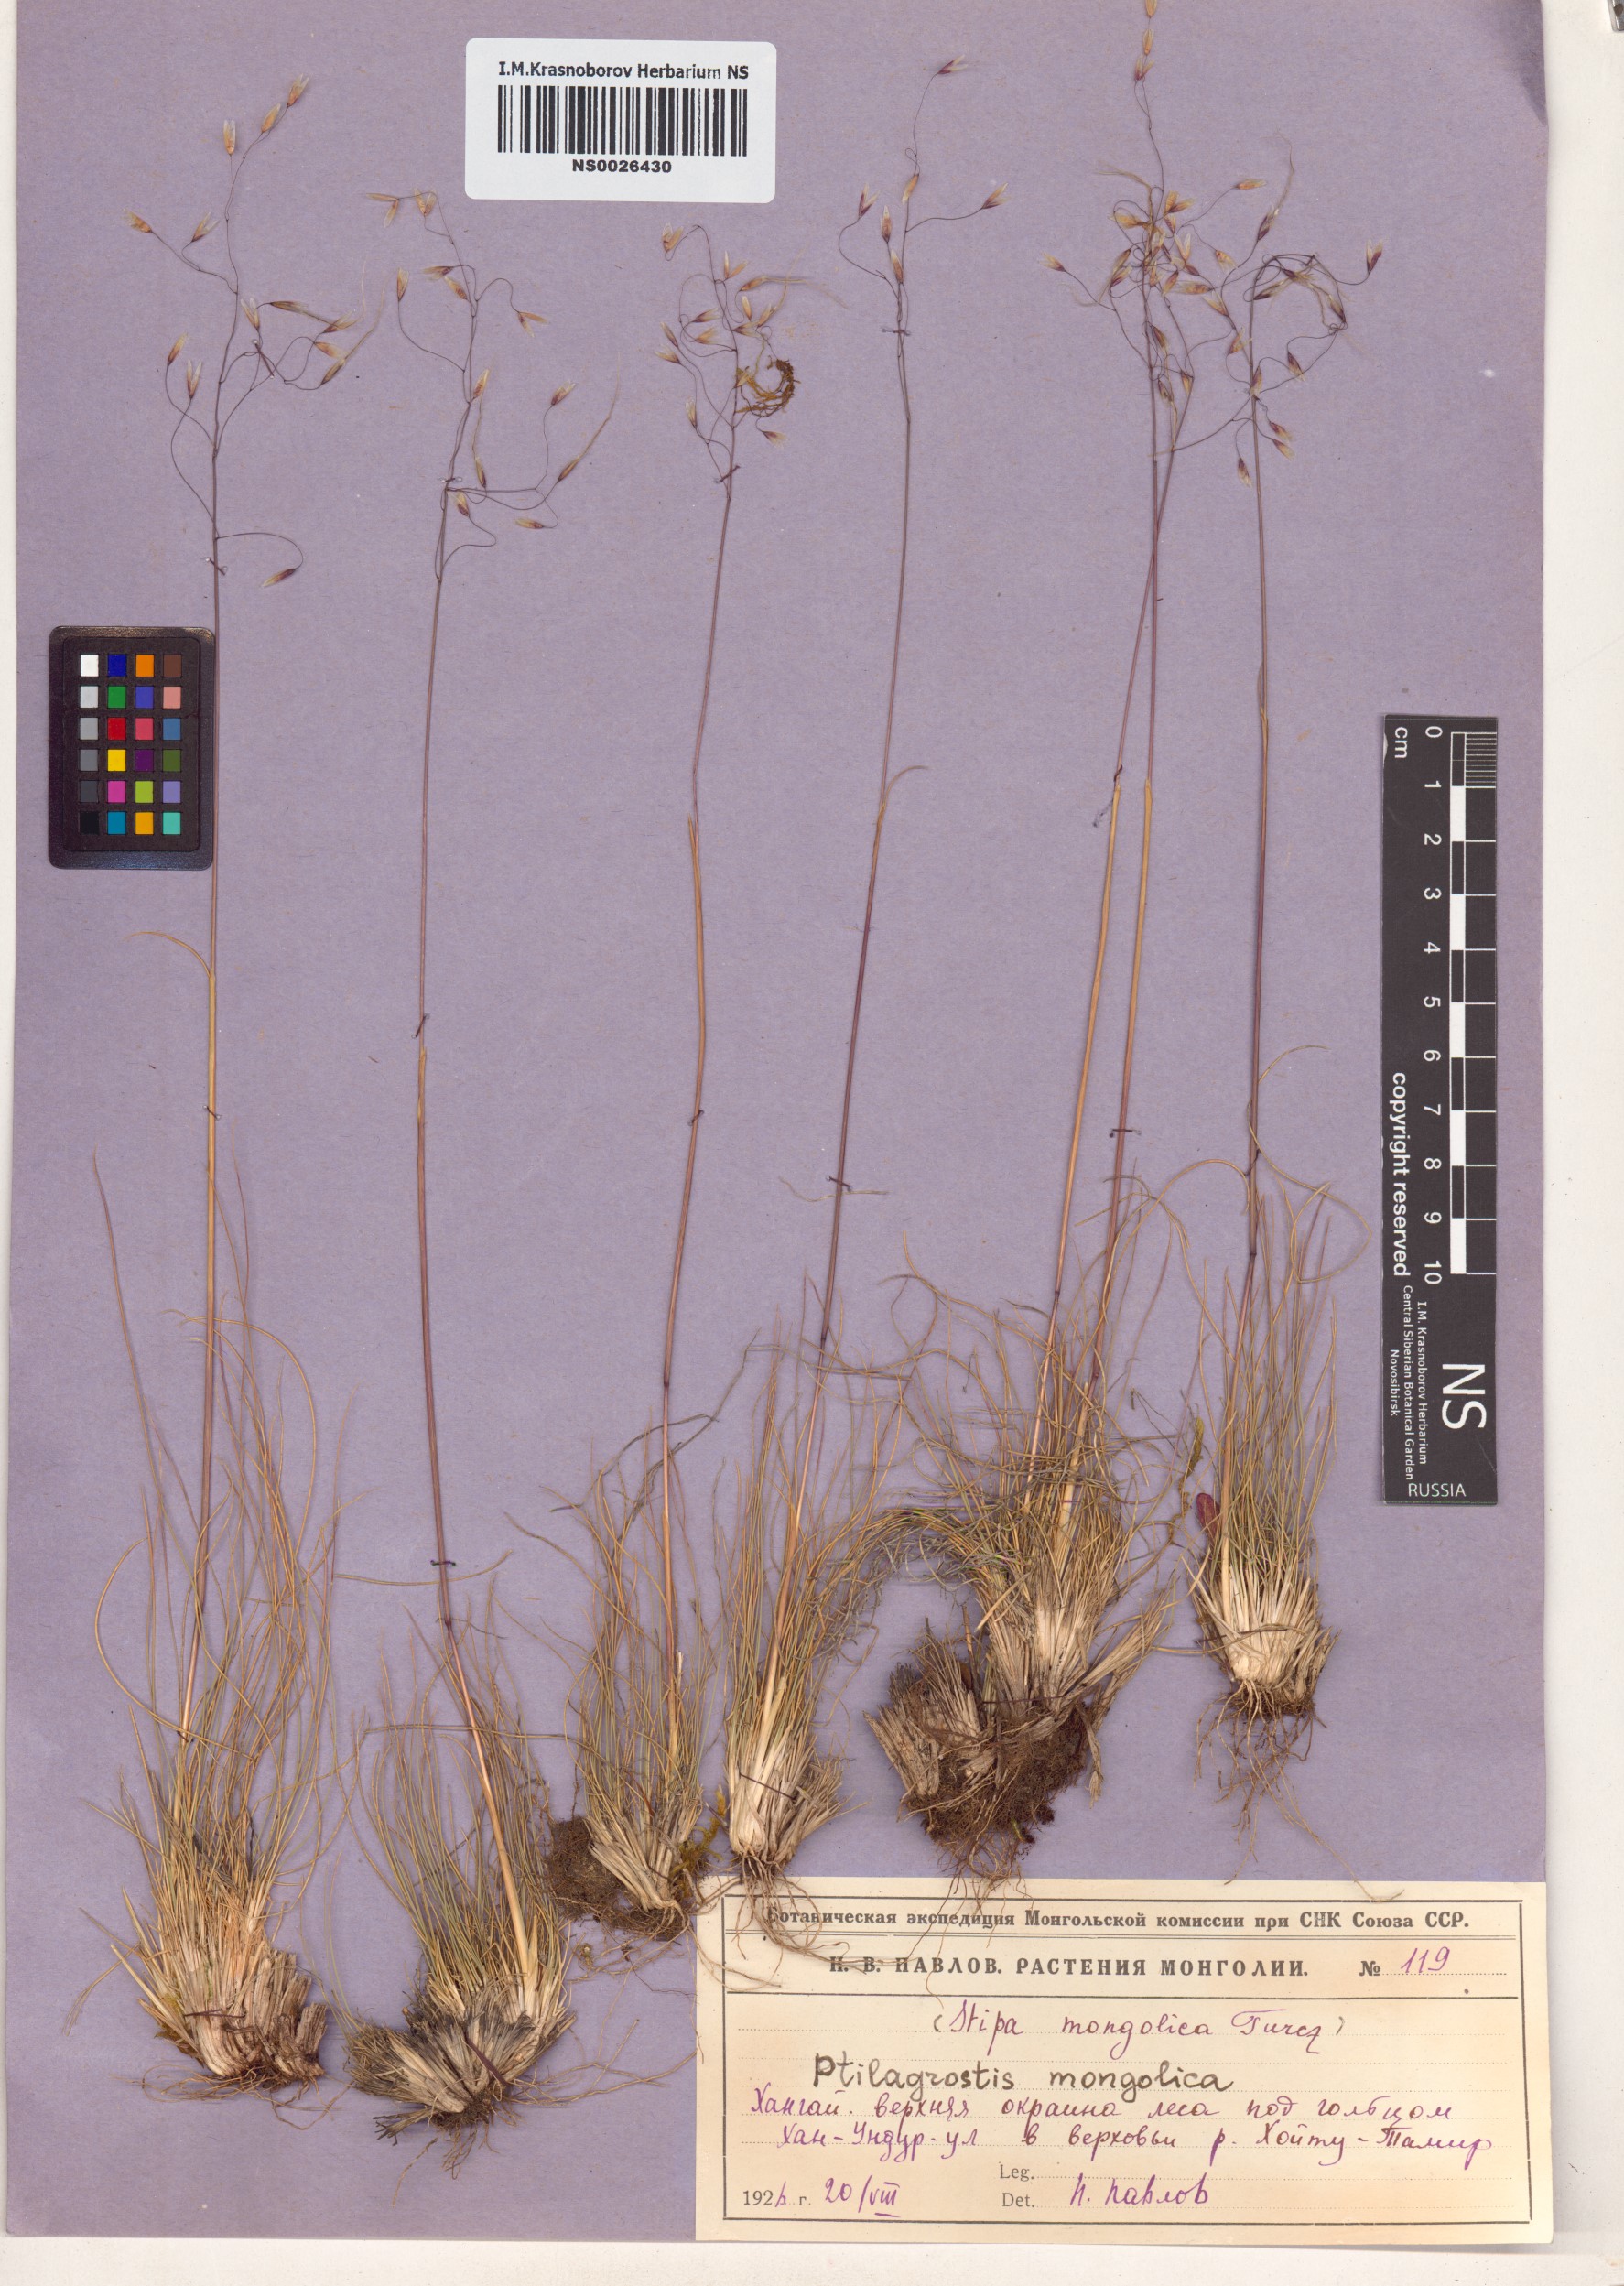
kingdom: Plantae
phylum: Tracheophyta
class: Liliopsida
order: Poales
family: Poaceae
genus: Ptilagrostis
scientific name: Ptilagrostis mongholica
